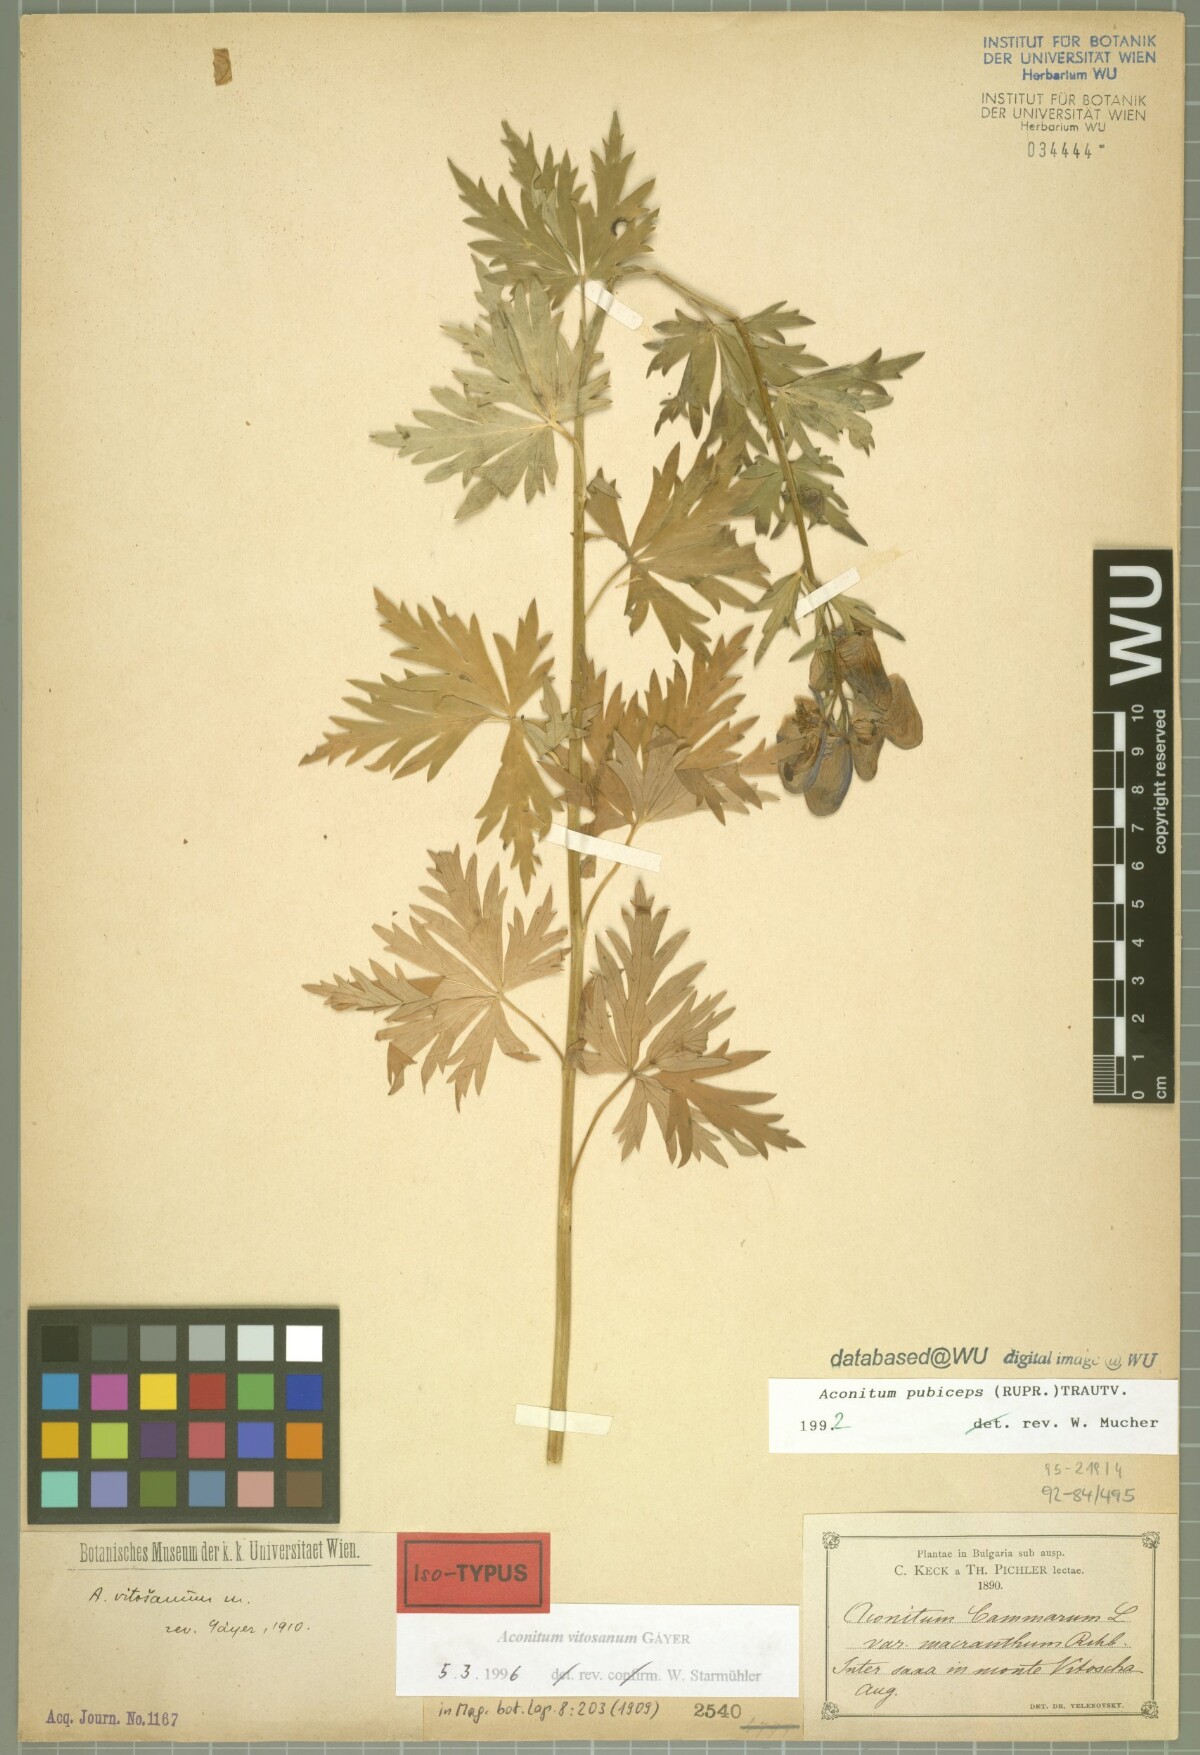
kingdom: Plantae
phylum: Tracheophyta
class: Magnoliopsida
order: Ranunculales
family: Ranunculaceae
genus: Aconitum
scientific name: Aconitum vitosanum
